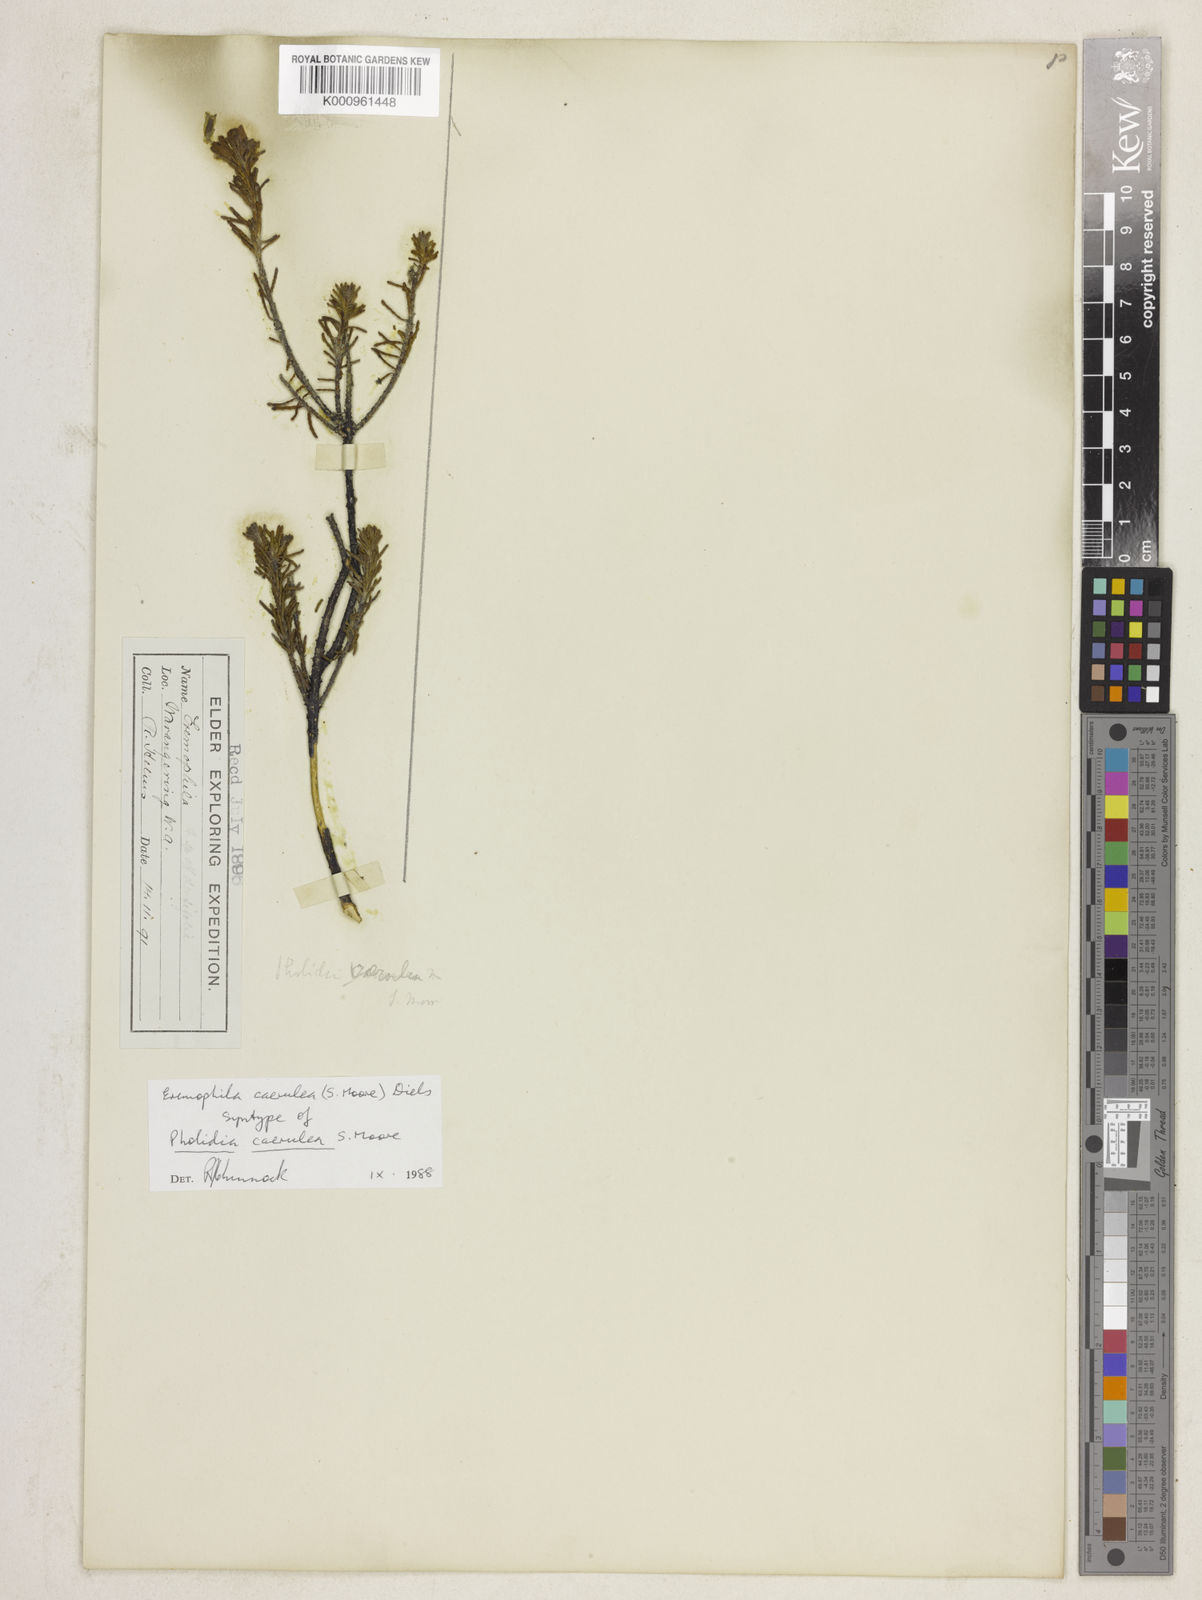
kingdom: Plantae
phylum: Tracheophyta
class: Magnoliopsida
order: Lamiales
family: Scrophulariaceae
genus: Eremophila
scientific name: Eremophila caerulea
